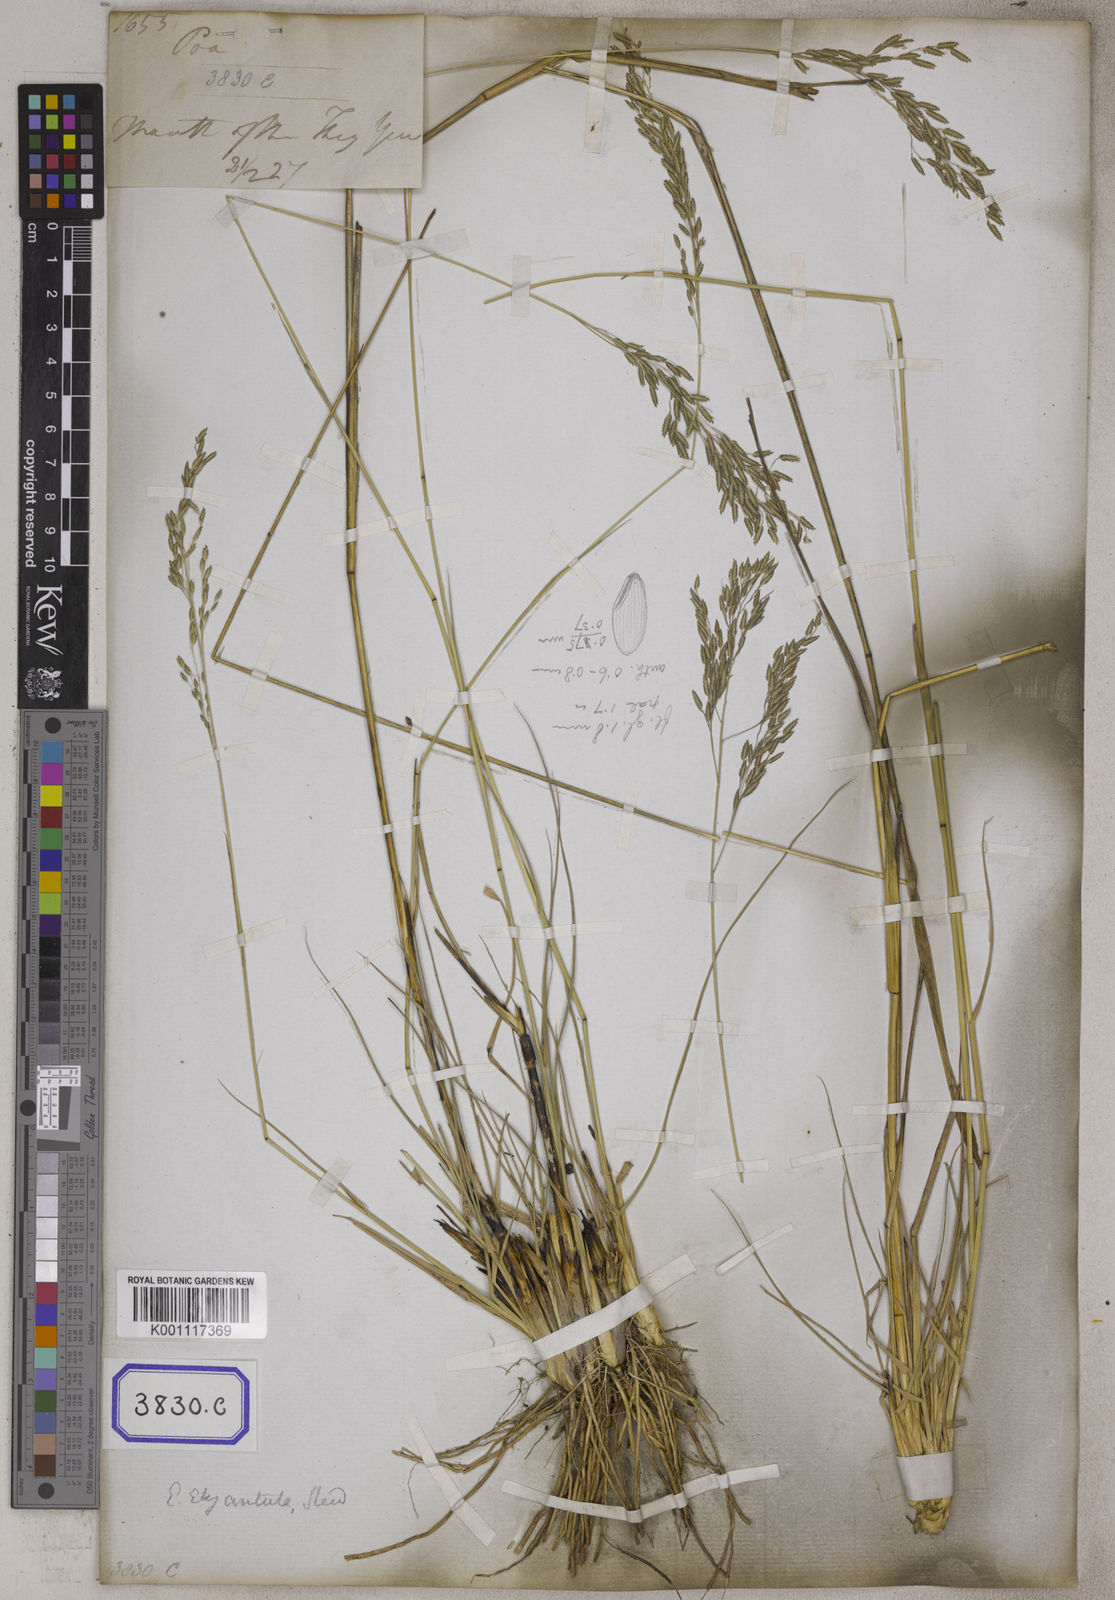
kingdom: Plantae
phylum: Tracheophyta
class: Liliopsida
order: Poales
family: Poaceae
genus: Eragrostis
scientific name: Eragrostis
